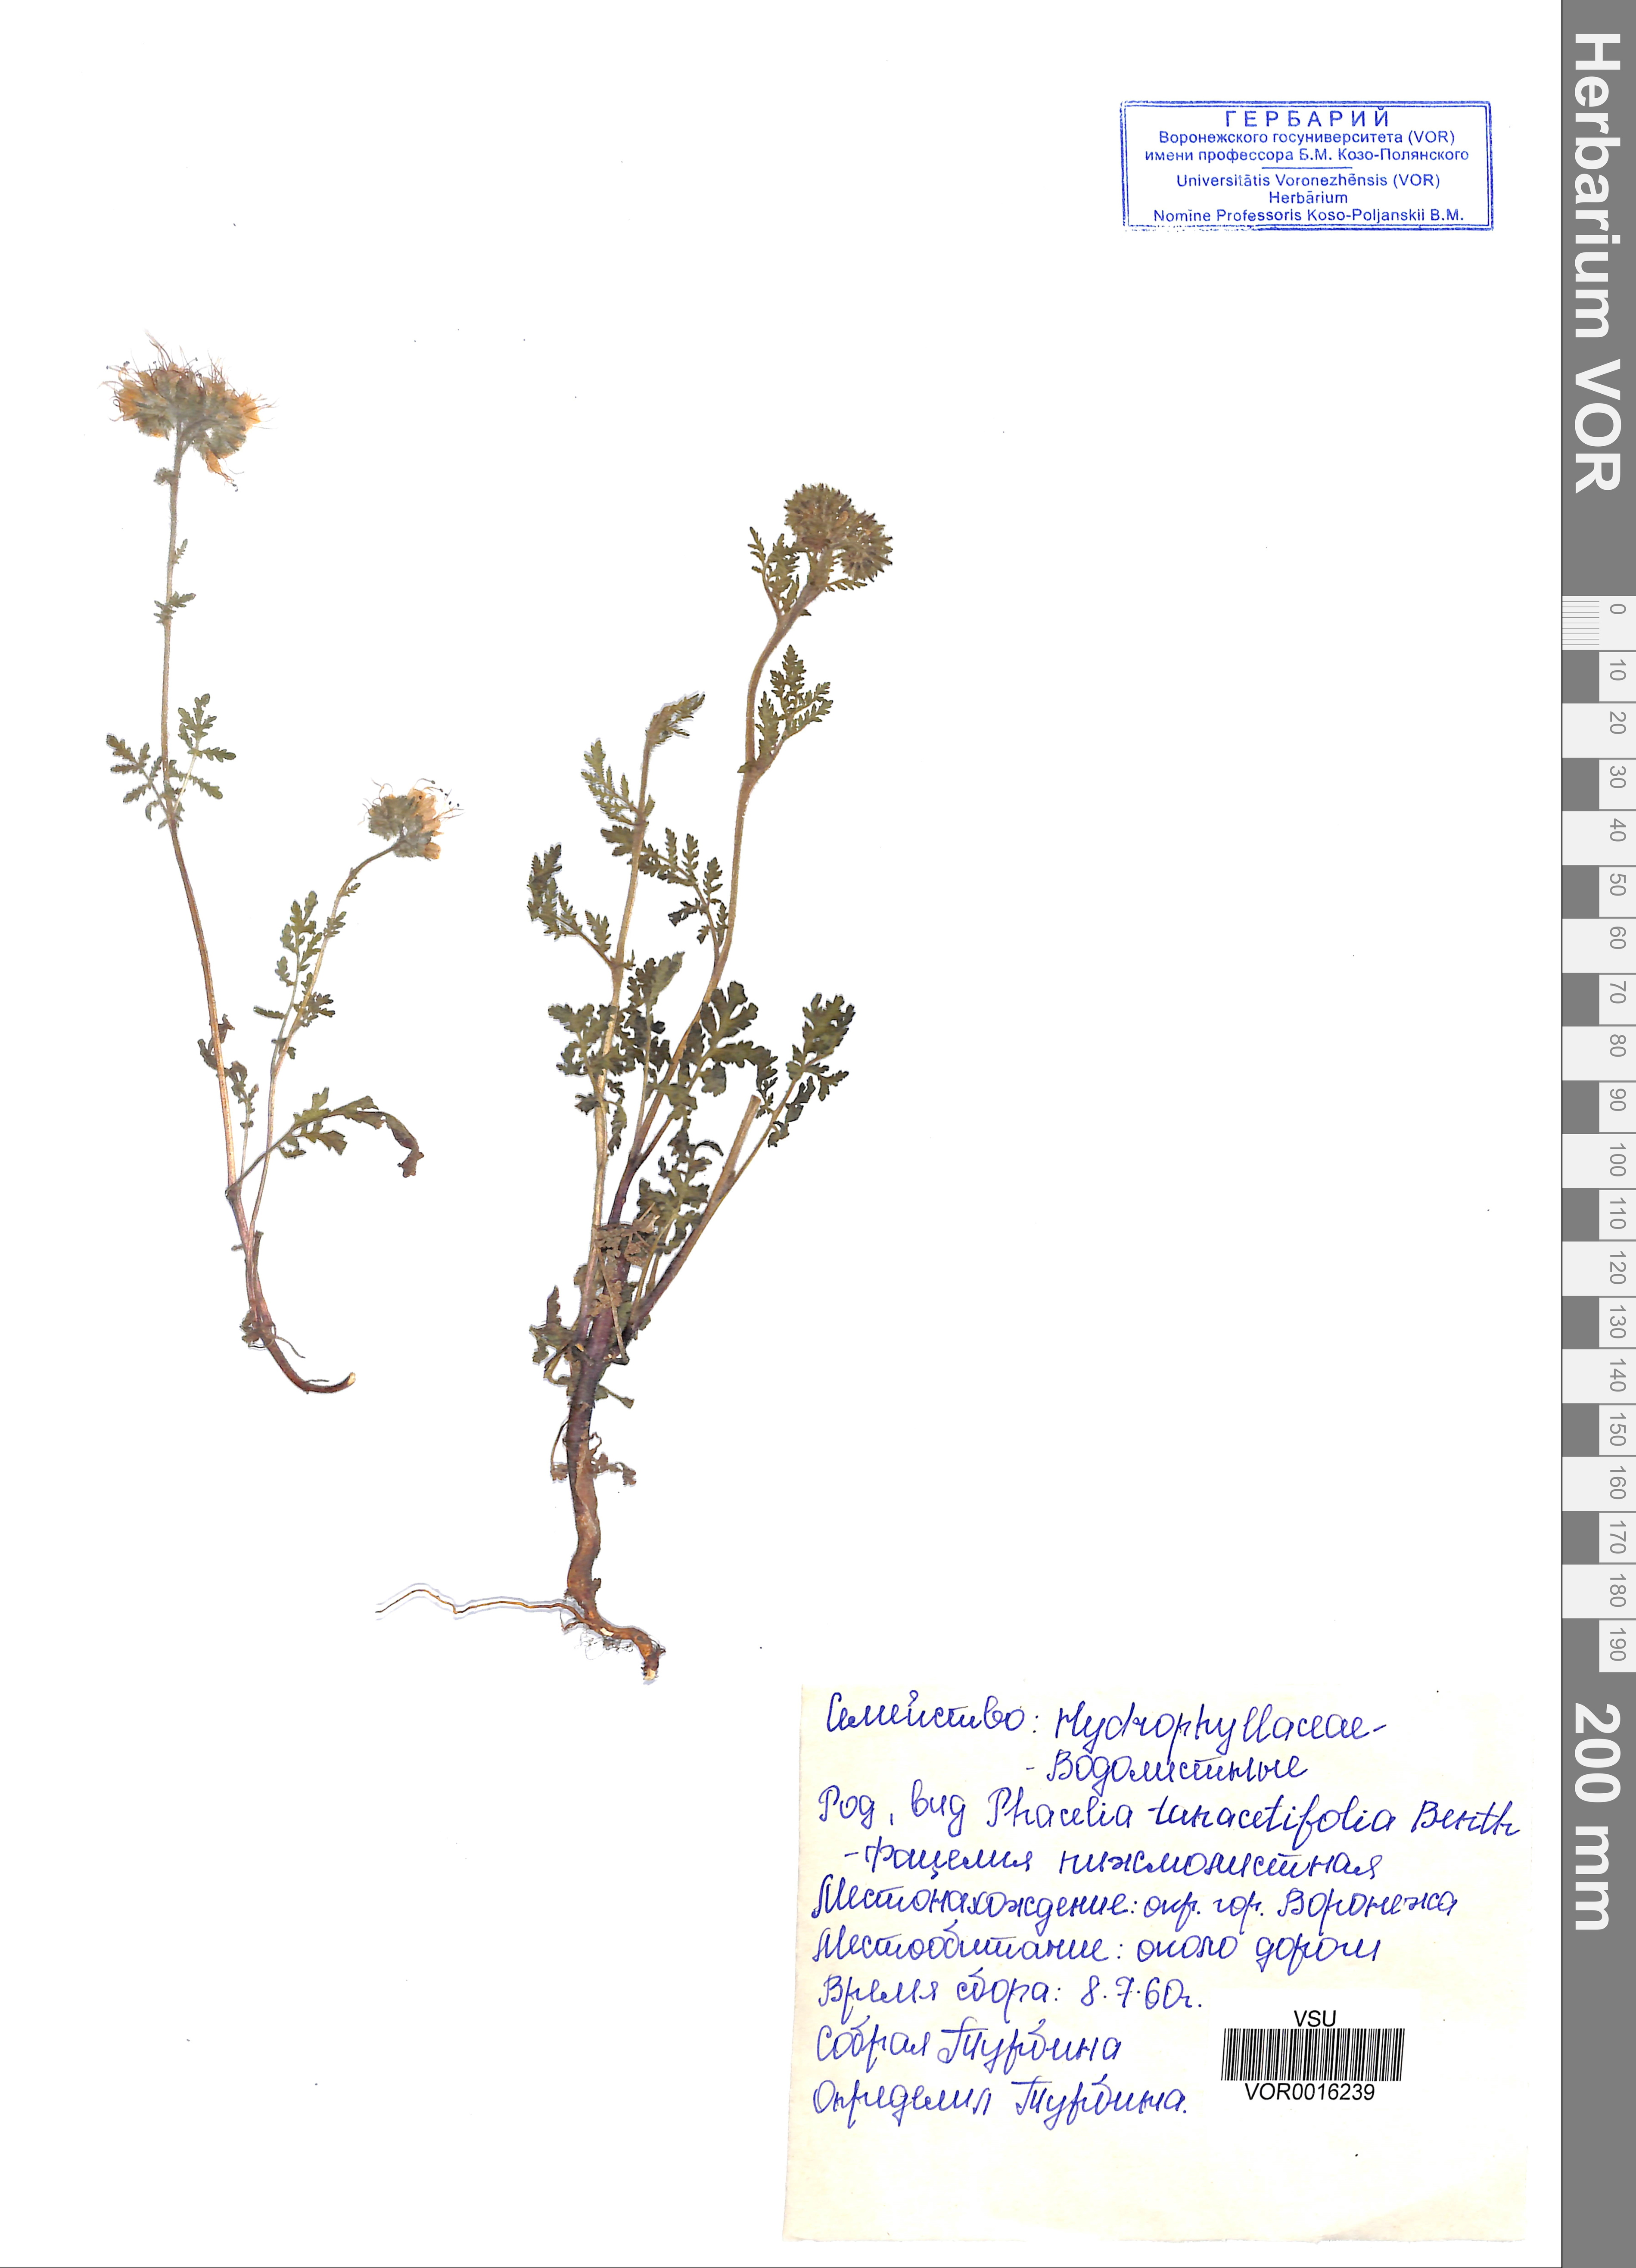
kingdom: Plantae
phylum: Tracheophyta
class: Magnoliopsida
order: Boraginales
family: Hydrophyllaceae
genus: Phacelia
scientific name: Phacelia tanacetifolia
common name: Phacelia
